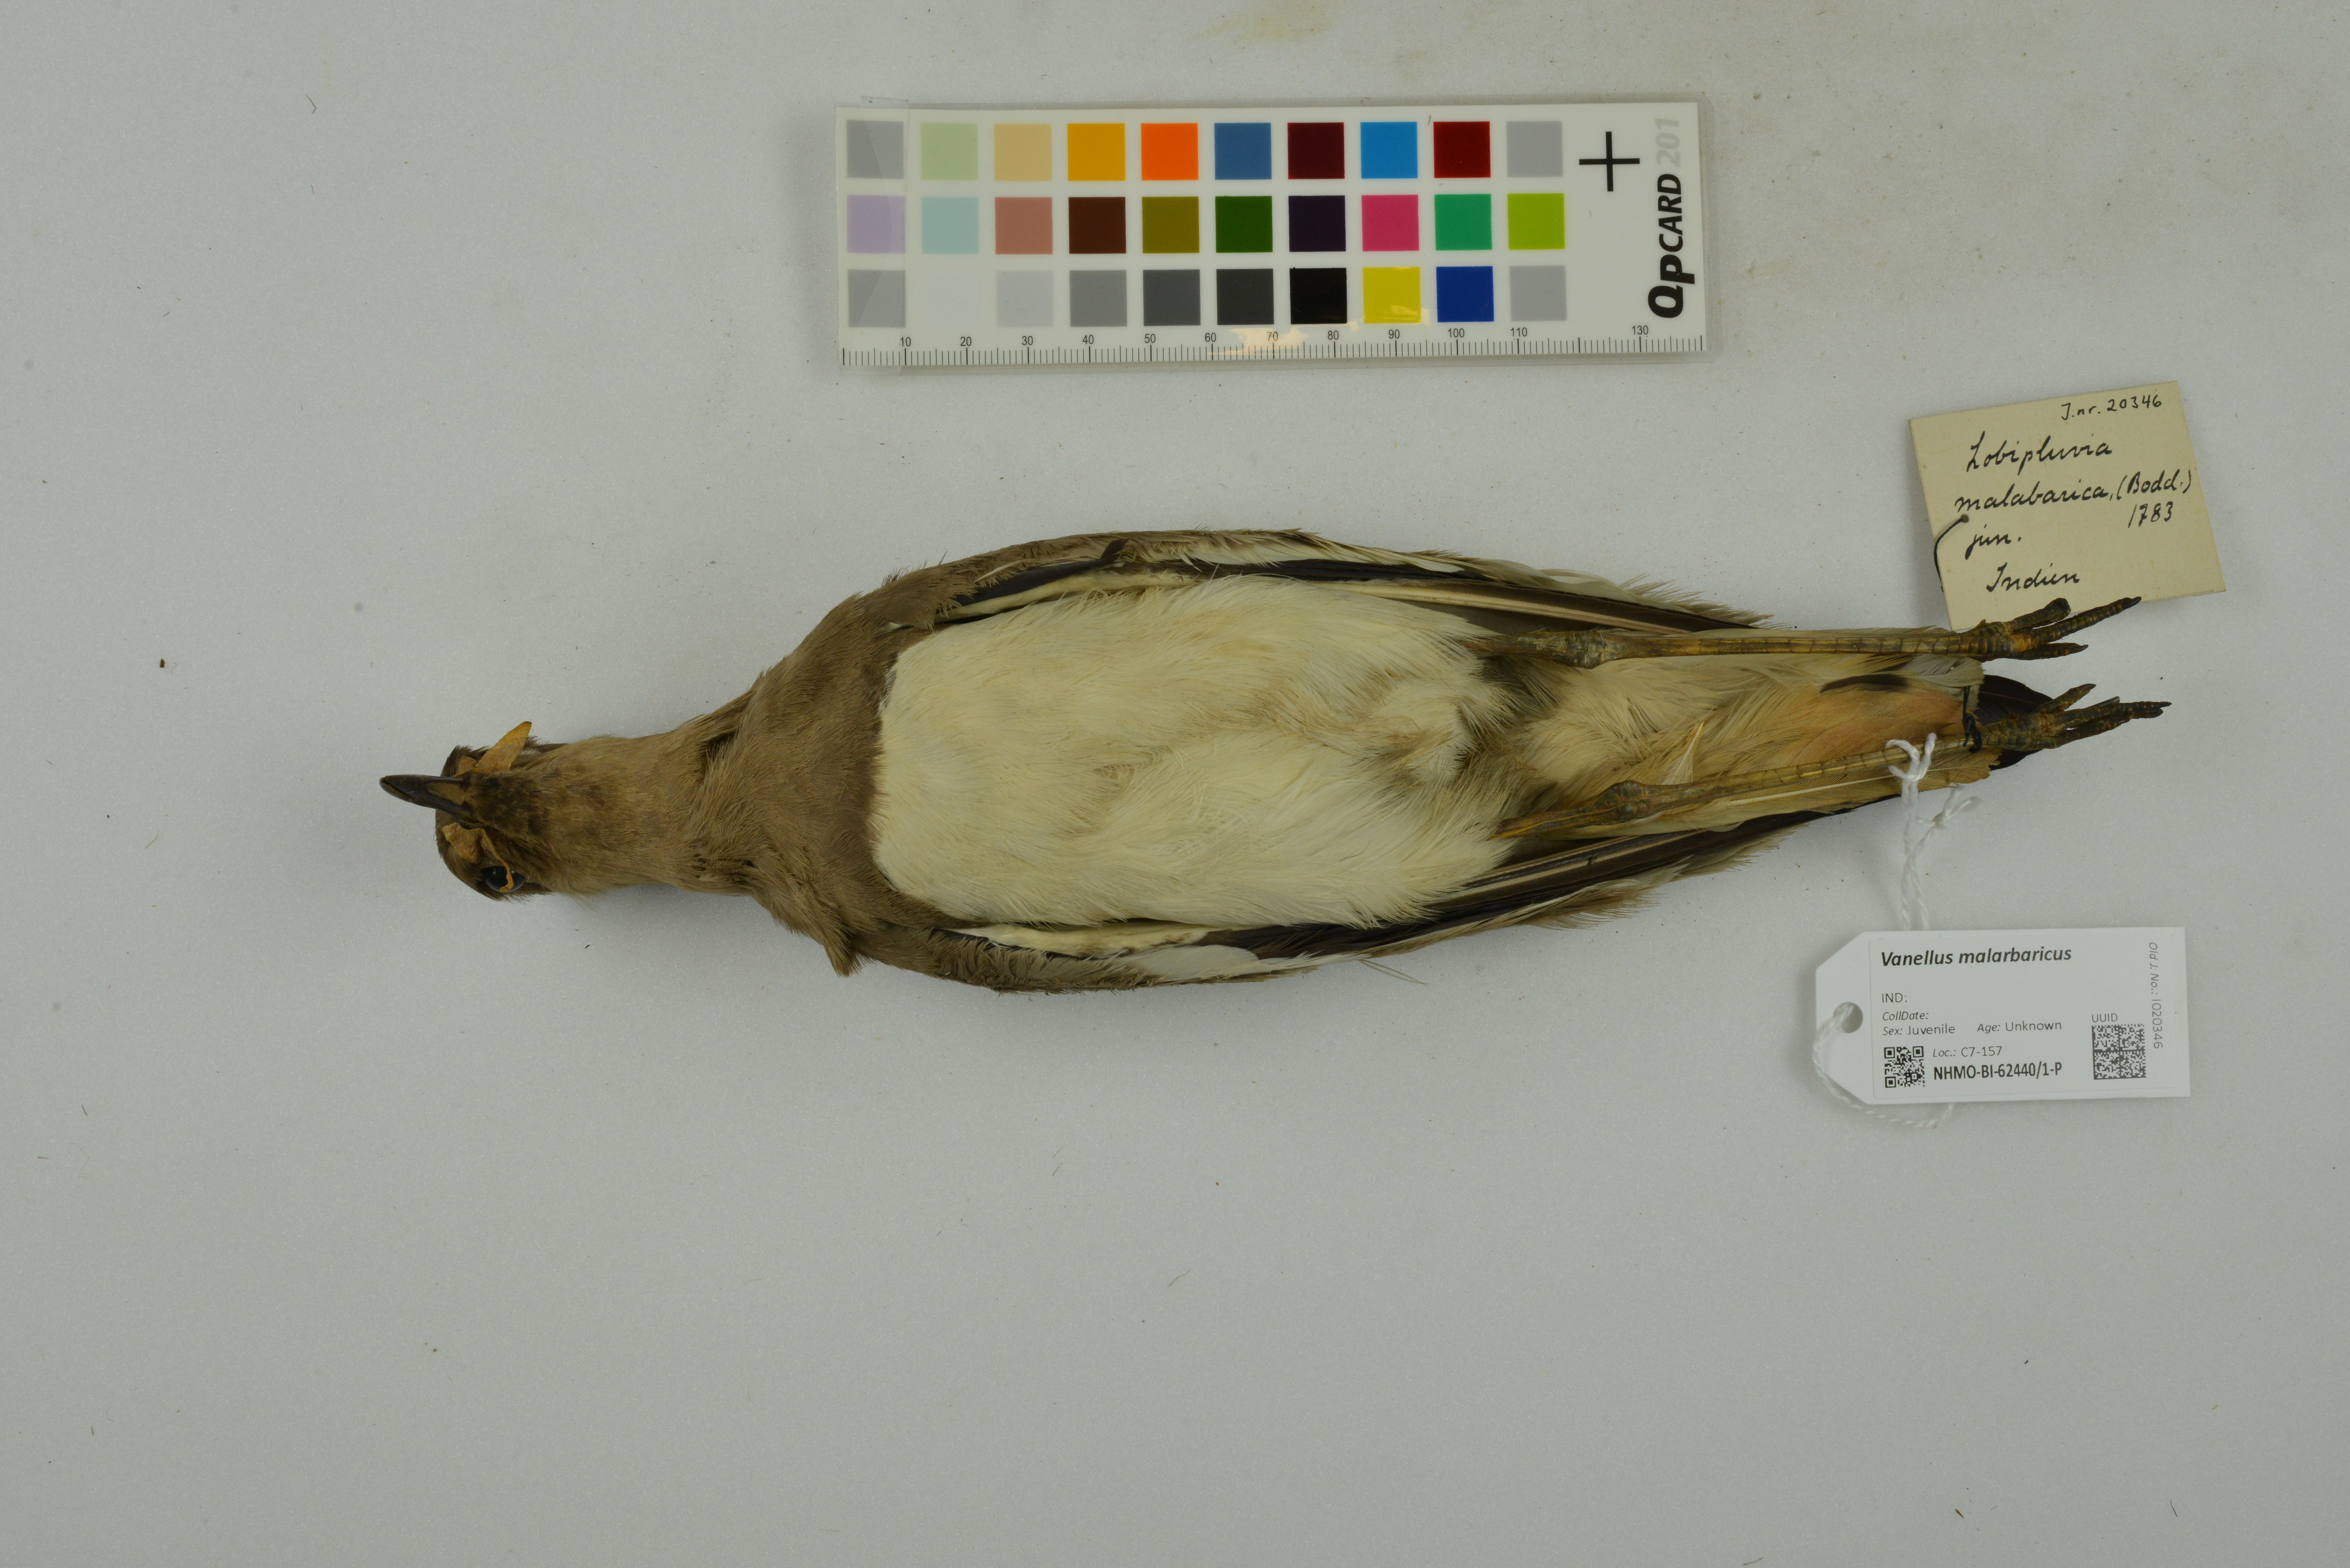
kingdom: Animalia
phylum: Chordata
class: Aves
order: Charadriiformes
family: Charadriidae
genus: Vanellus
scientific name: Vanellus malabaricus
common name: Yellow-wattled lapwing
